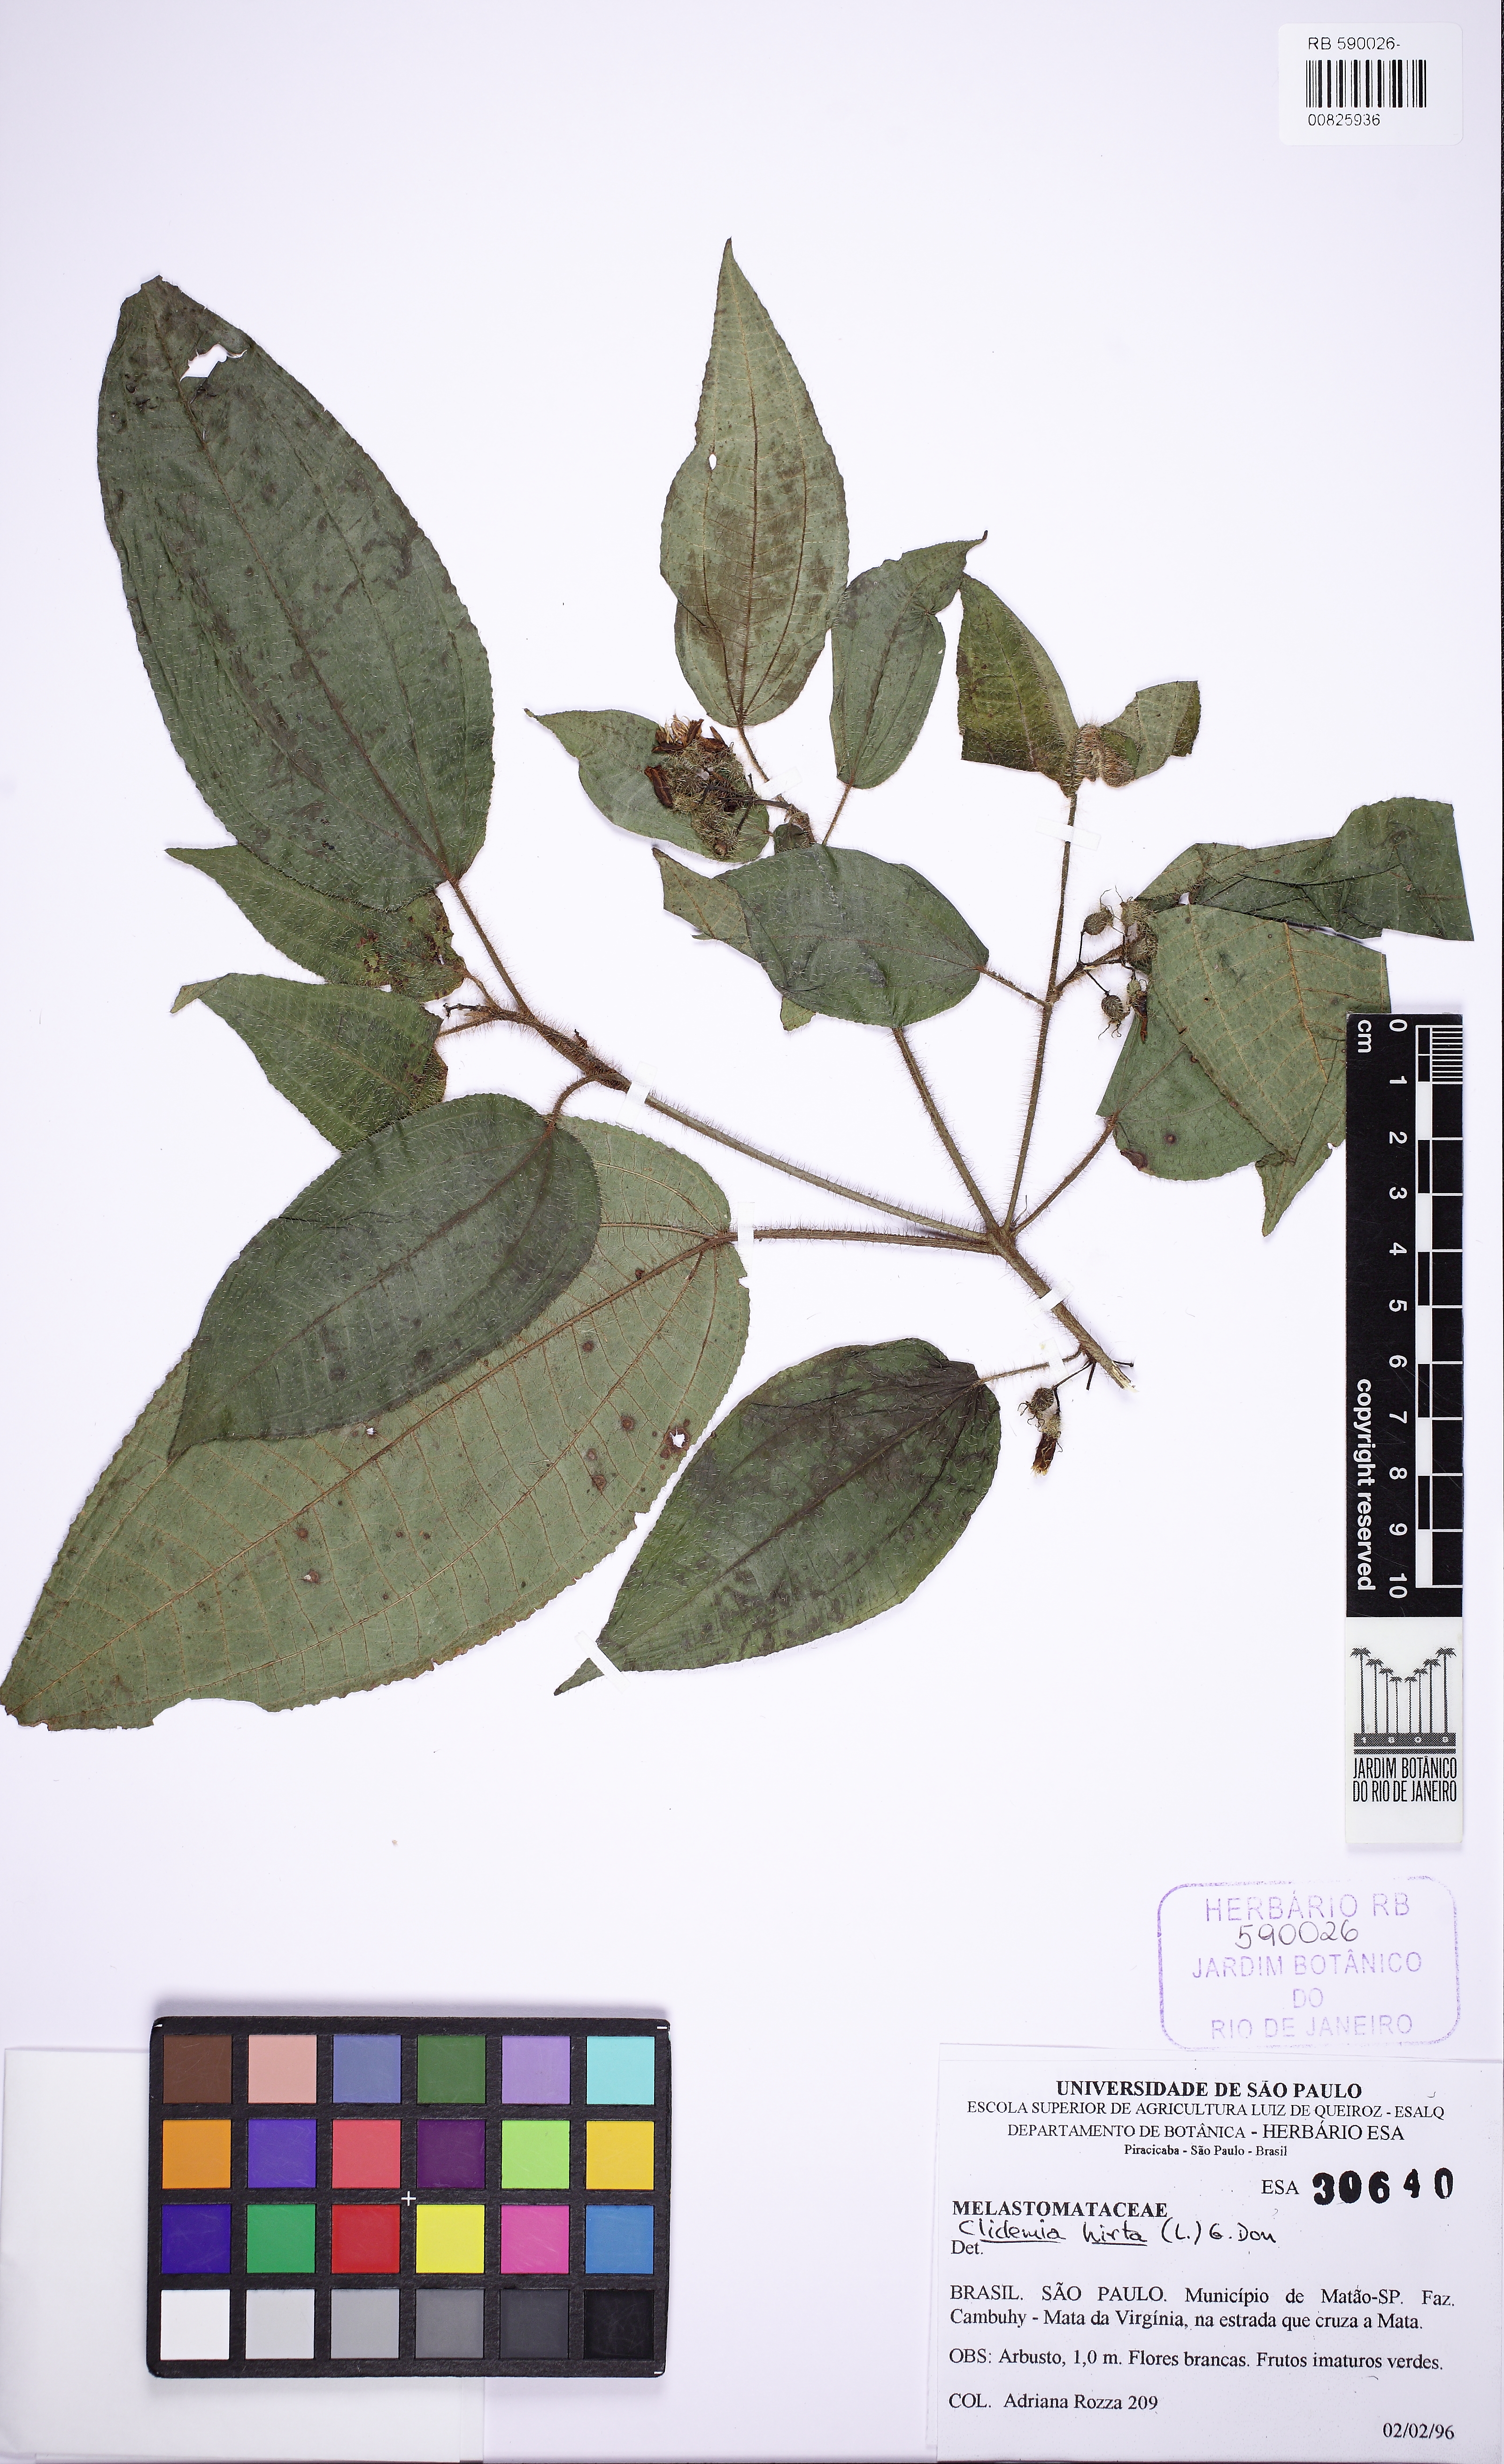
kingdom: Plantae
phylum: Tracheophyta
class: Magnoliopsida
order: Myrtales
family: Melastomataceae
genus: Miconia
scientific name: Miconia crenata
